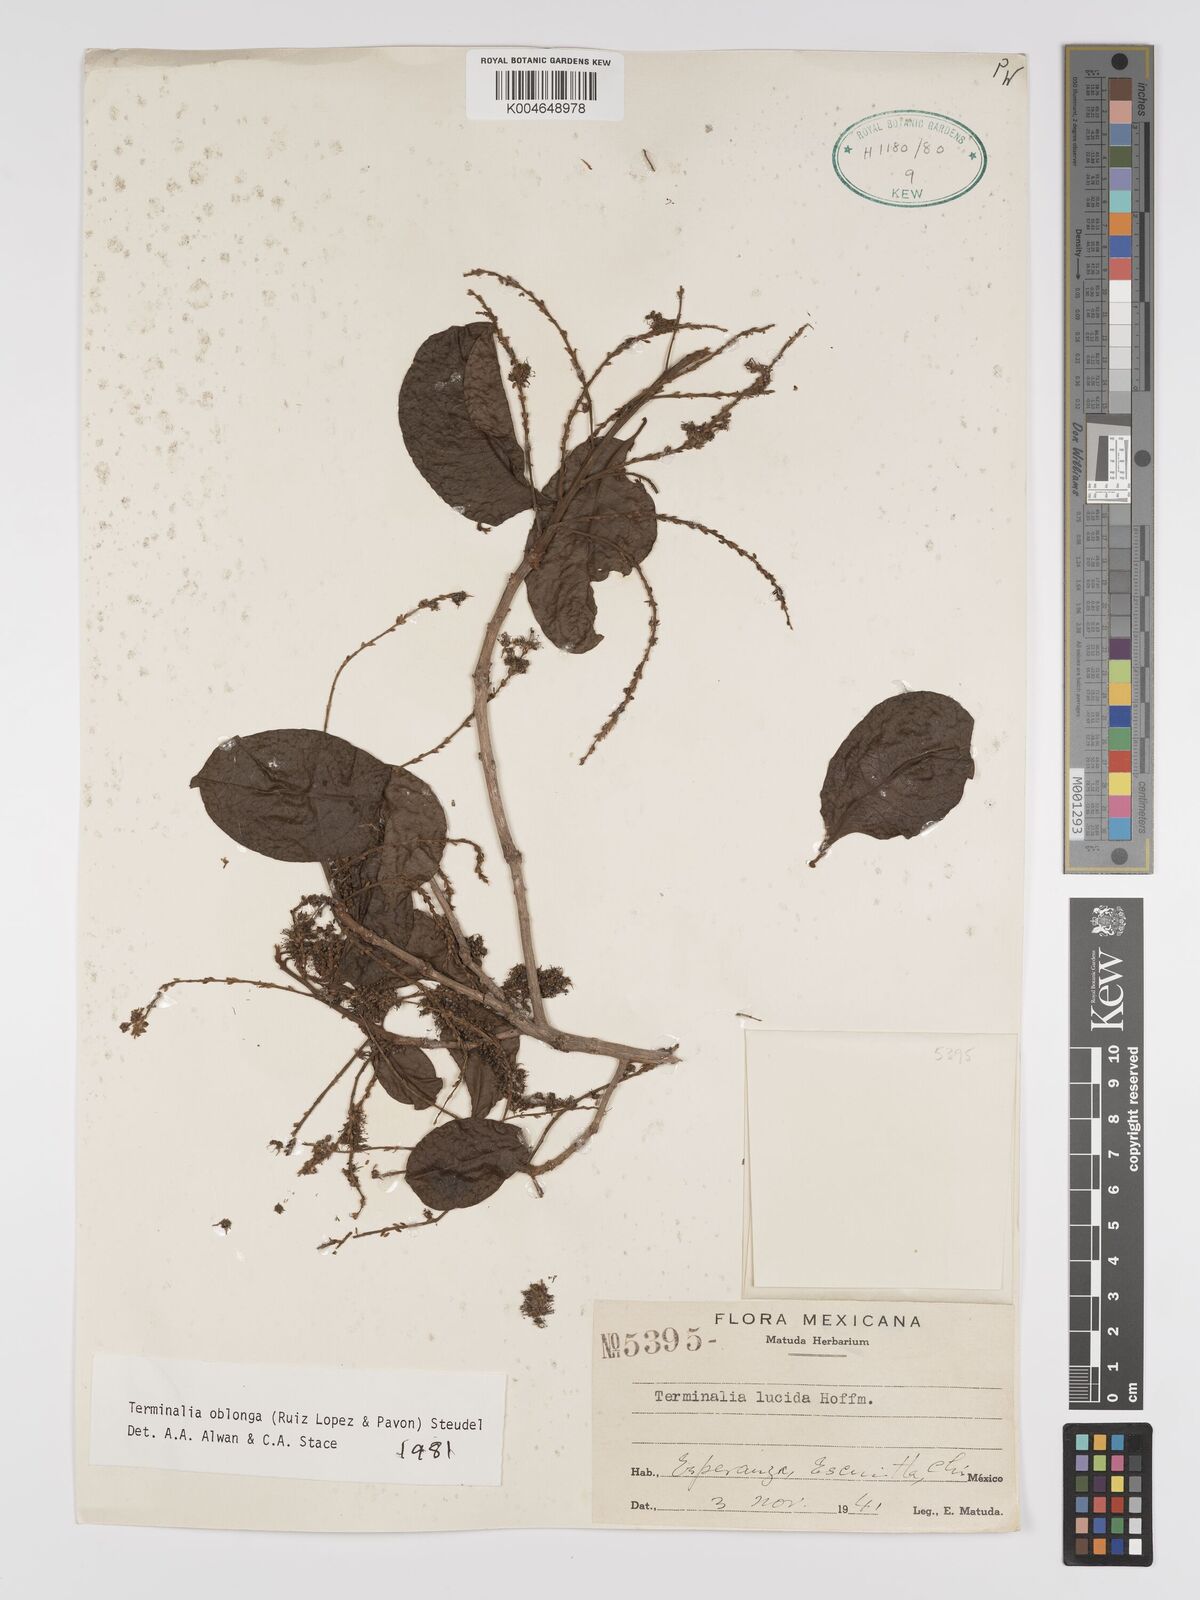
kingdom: Plantae
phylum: Tracheophyta
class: Magnoliopsida
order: Myrtales
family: Combretaceae
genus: Terminalia
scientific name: Terminalia oblonga
